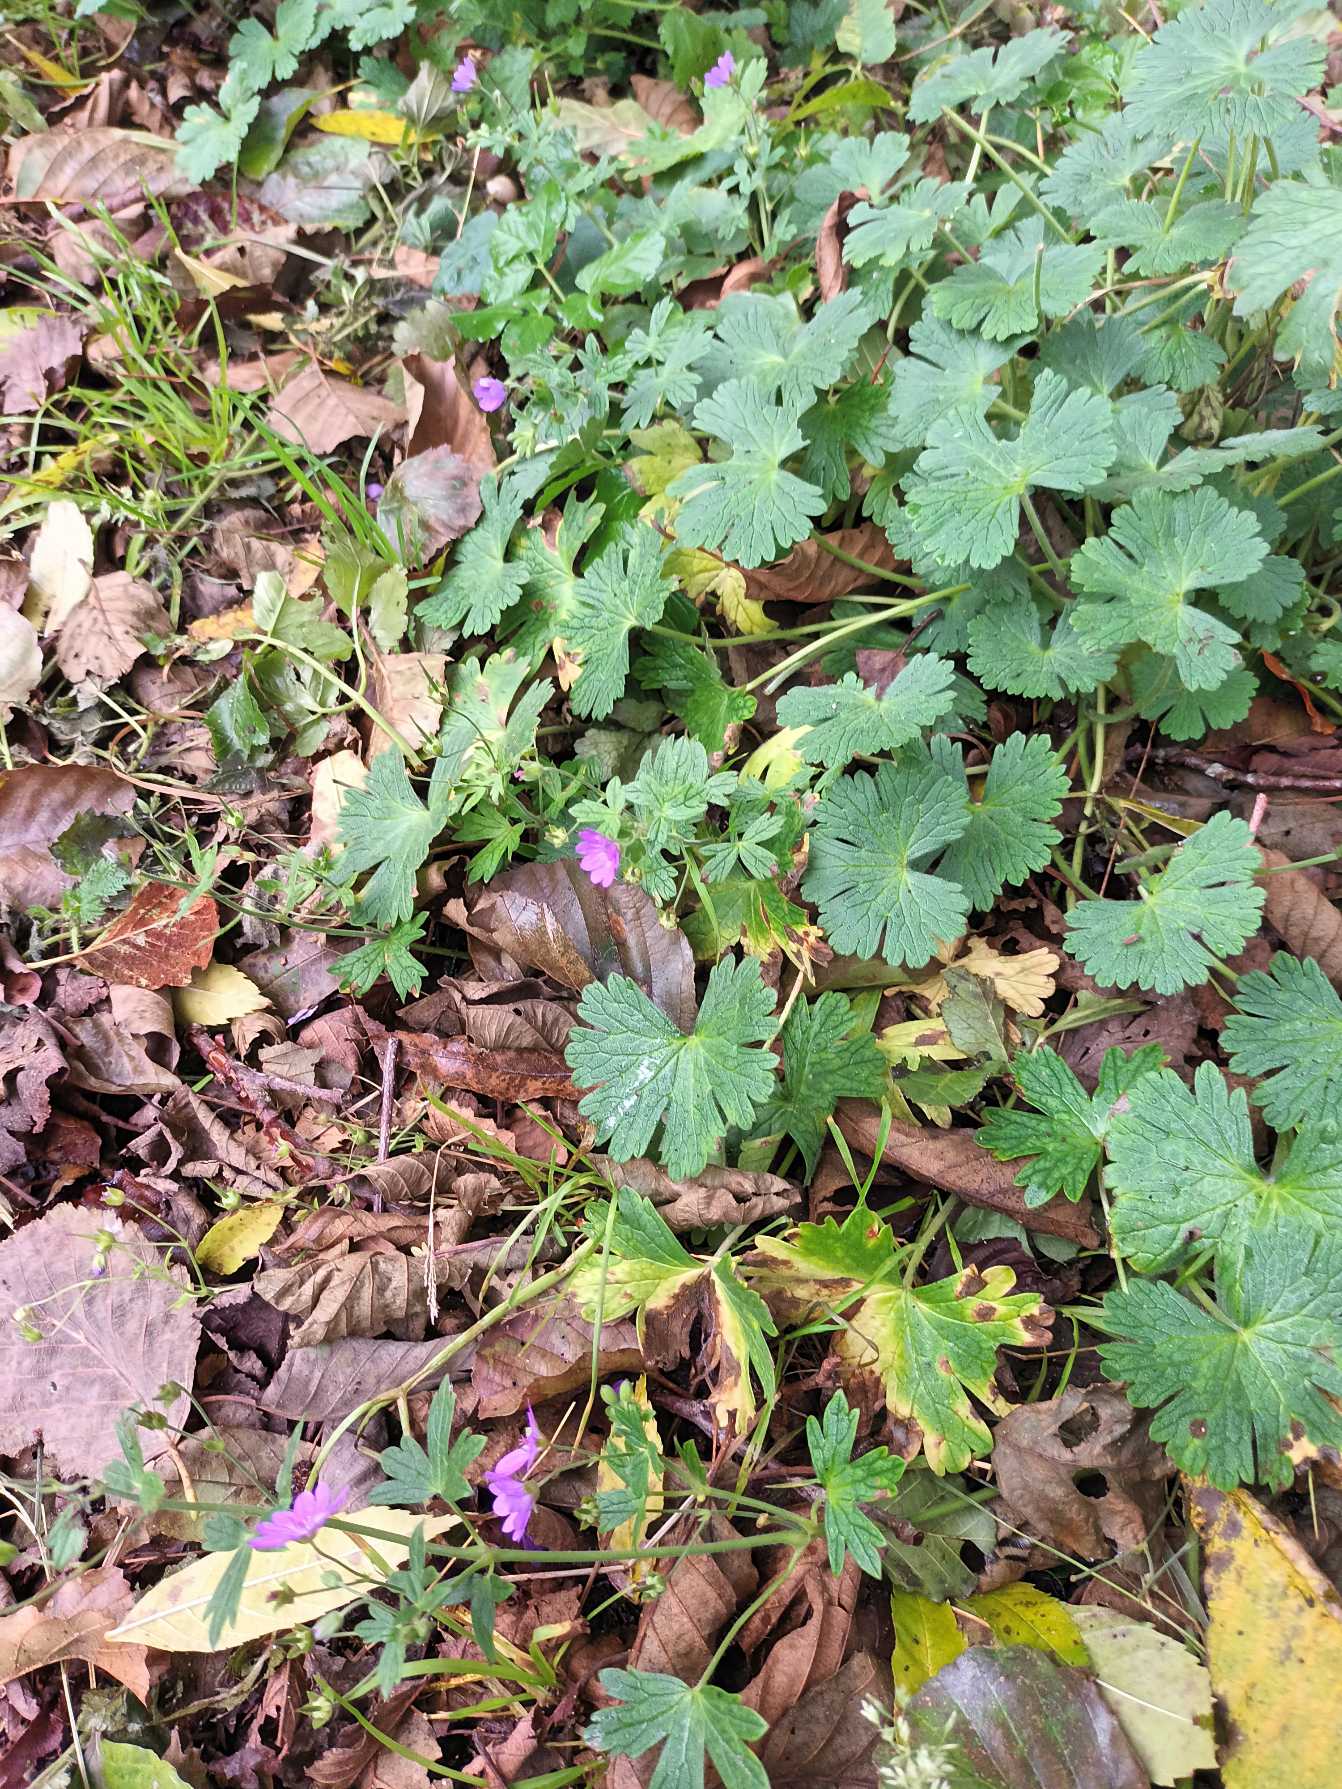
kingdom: Plantae
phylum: Tracheophyta
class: Magnoliopsida
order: Geraniales
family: Geraniaceae
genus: Geranium
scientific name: Geranium pyrenaicum
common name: Pyrenæisk storkenæb
